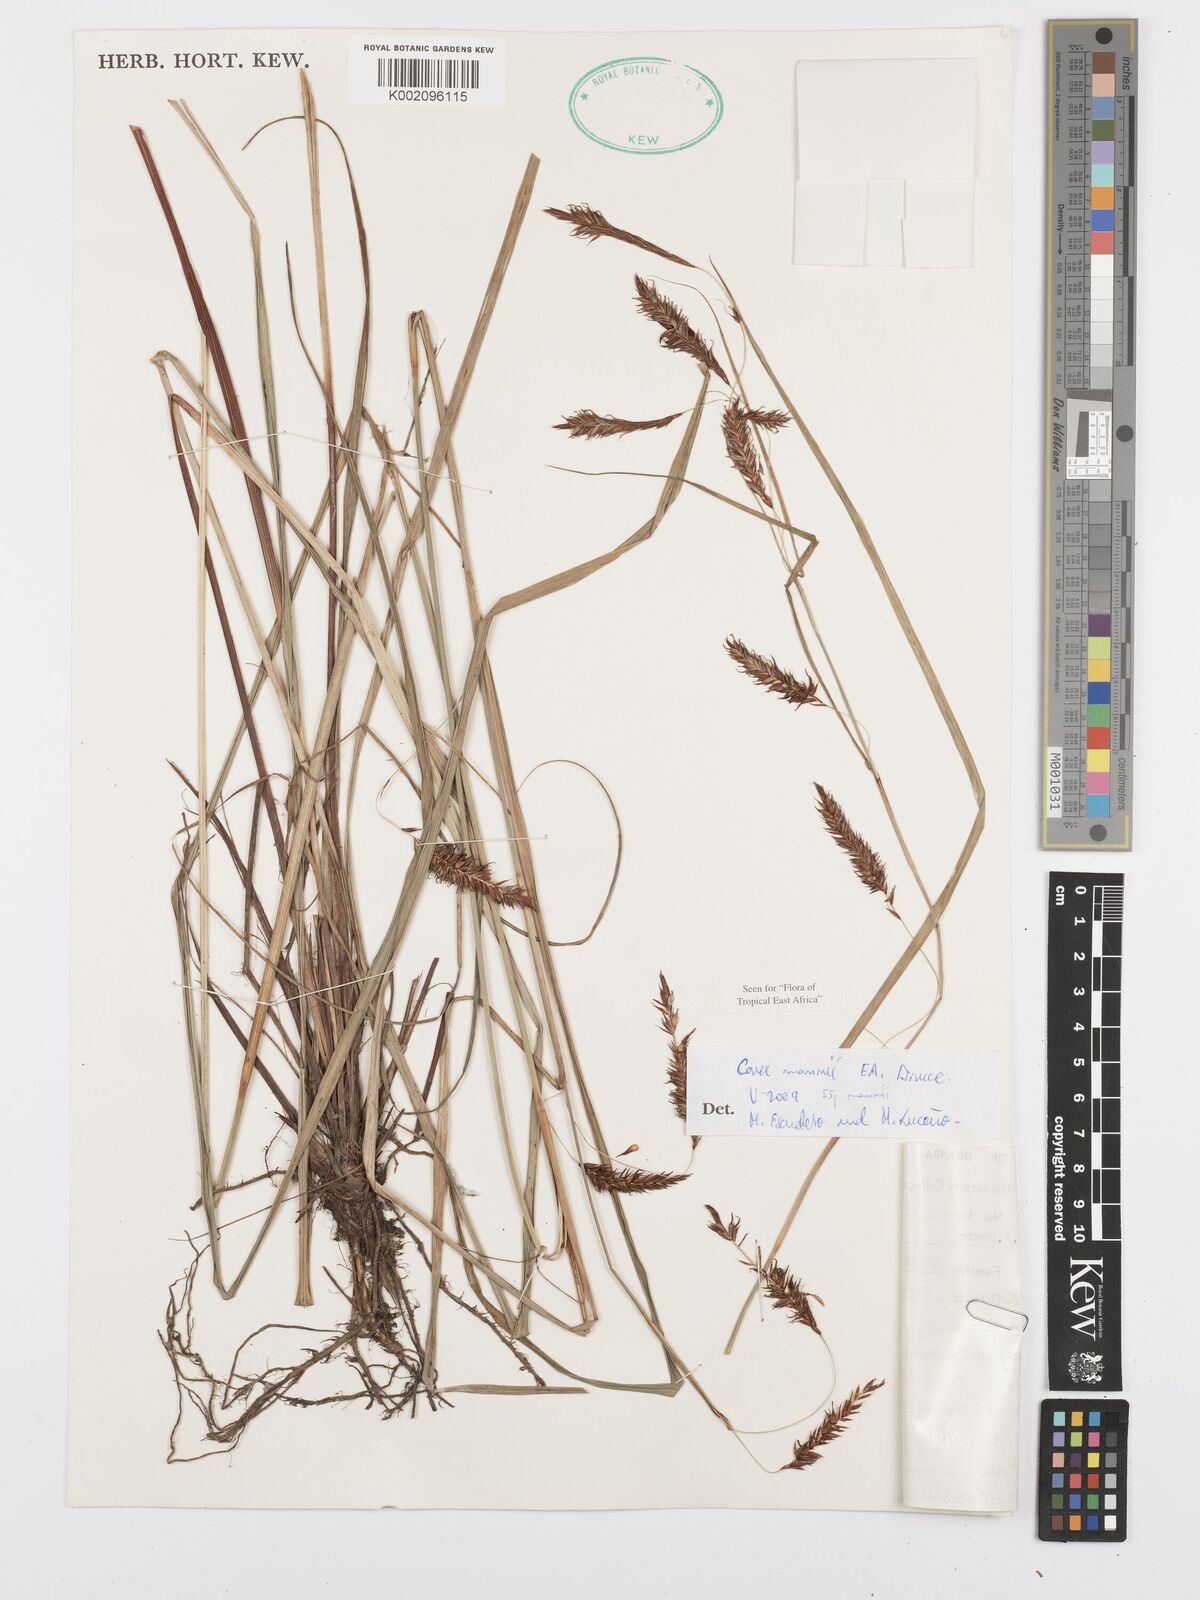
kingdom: Plantae
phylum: Tracheophyta
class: Liliopsida
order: Poales
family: Cyperaceae
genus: Carex
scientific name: Carex mannii
